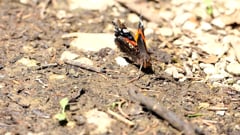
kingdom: Animalia
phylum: Arthropoda
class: Insecta
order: Lepidoptera
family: Nymphalidae
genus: Vanessa
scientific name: Vanessa atalanta
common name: Red admiral
